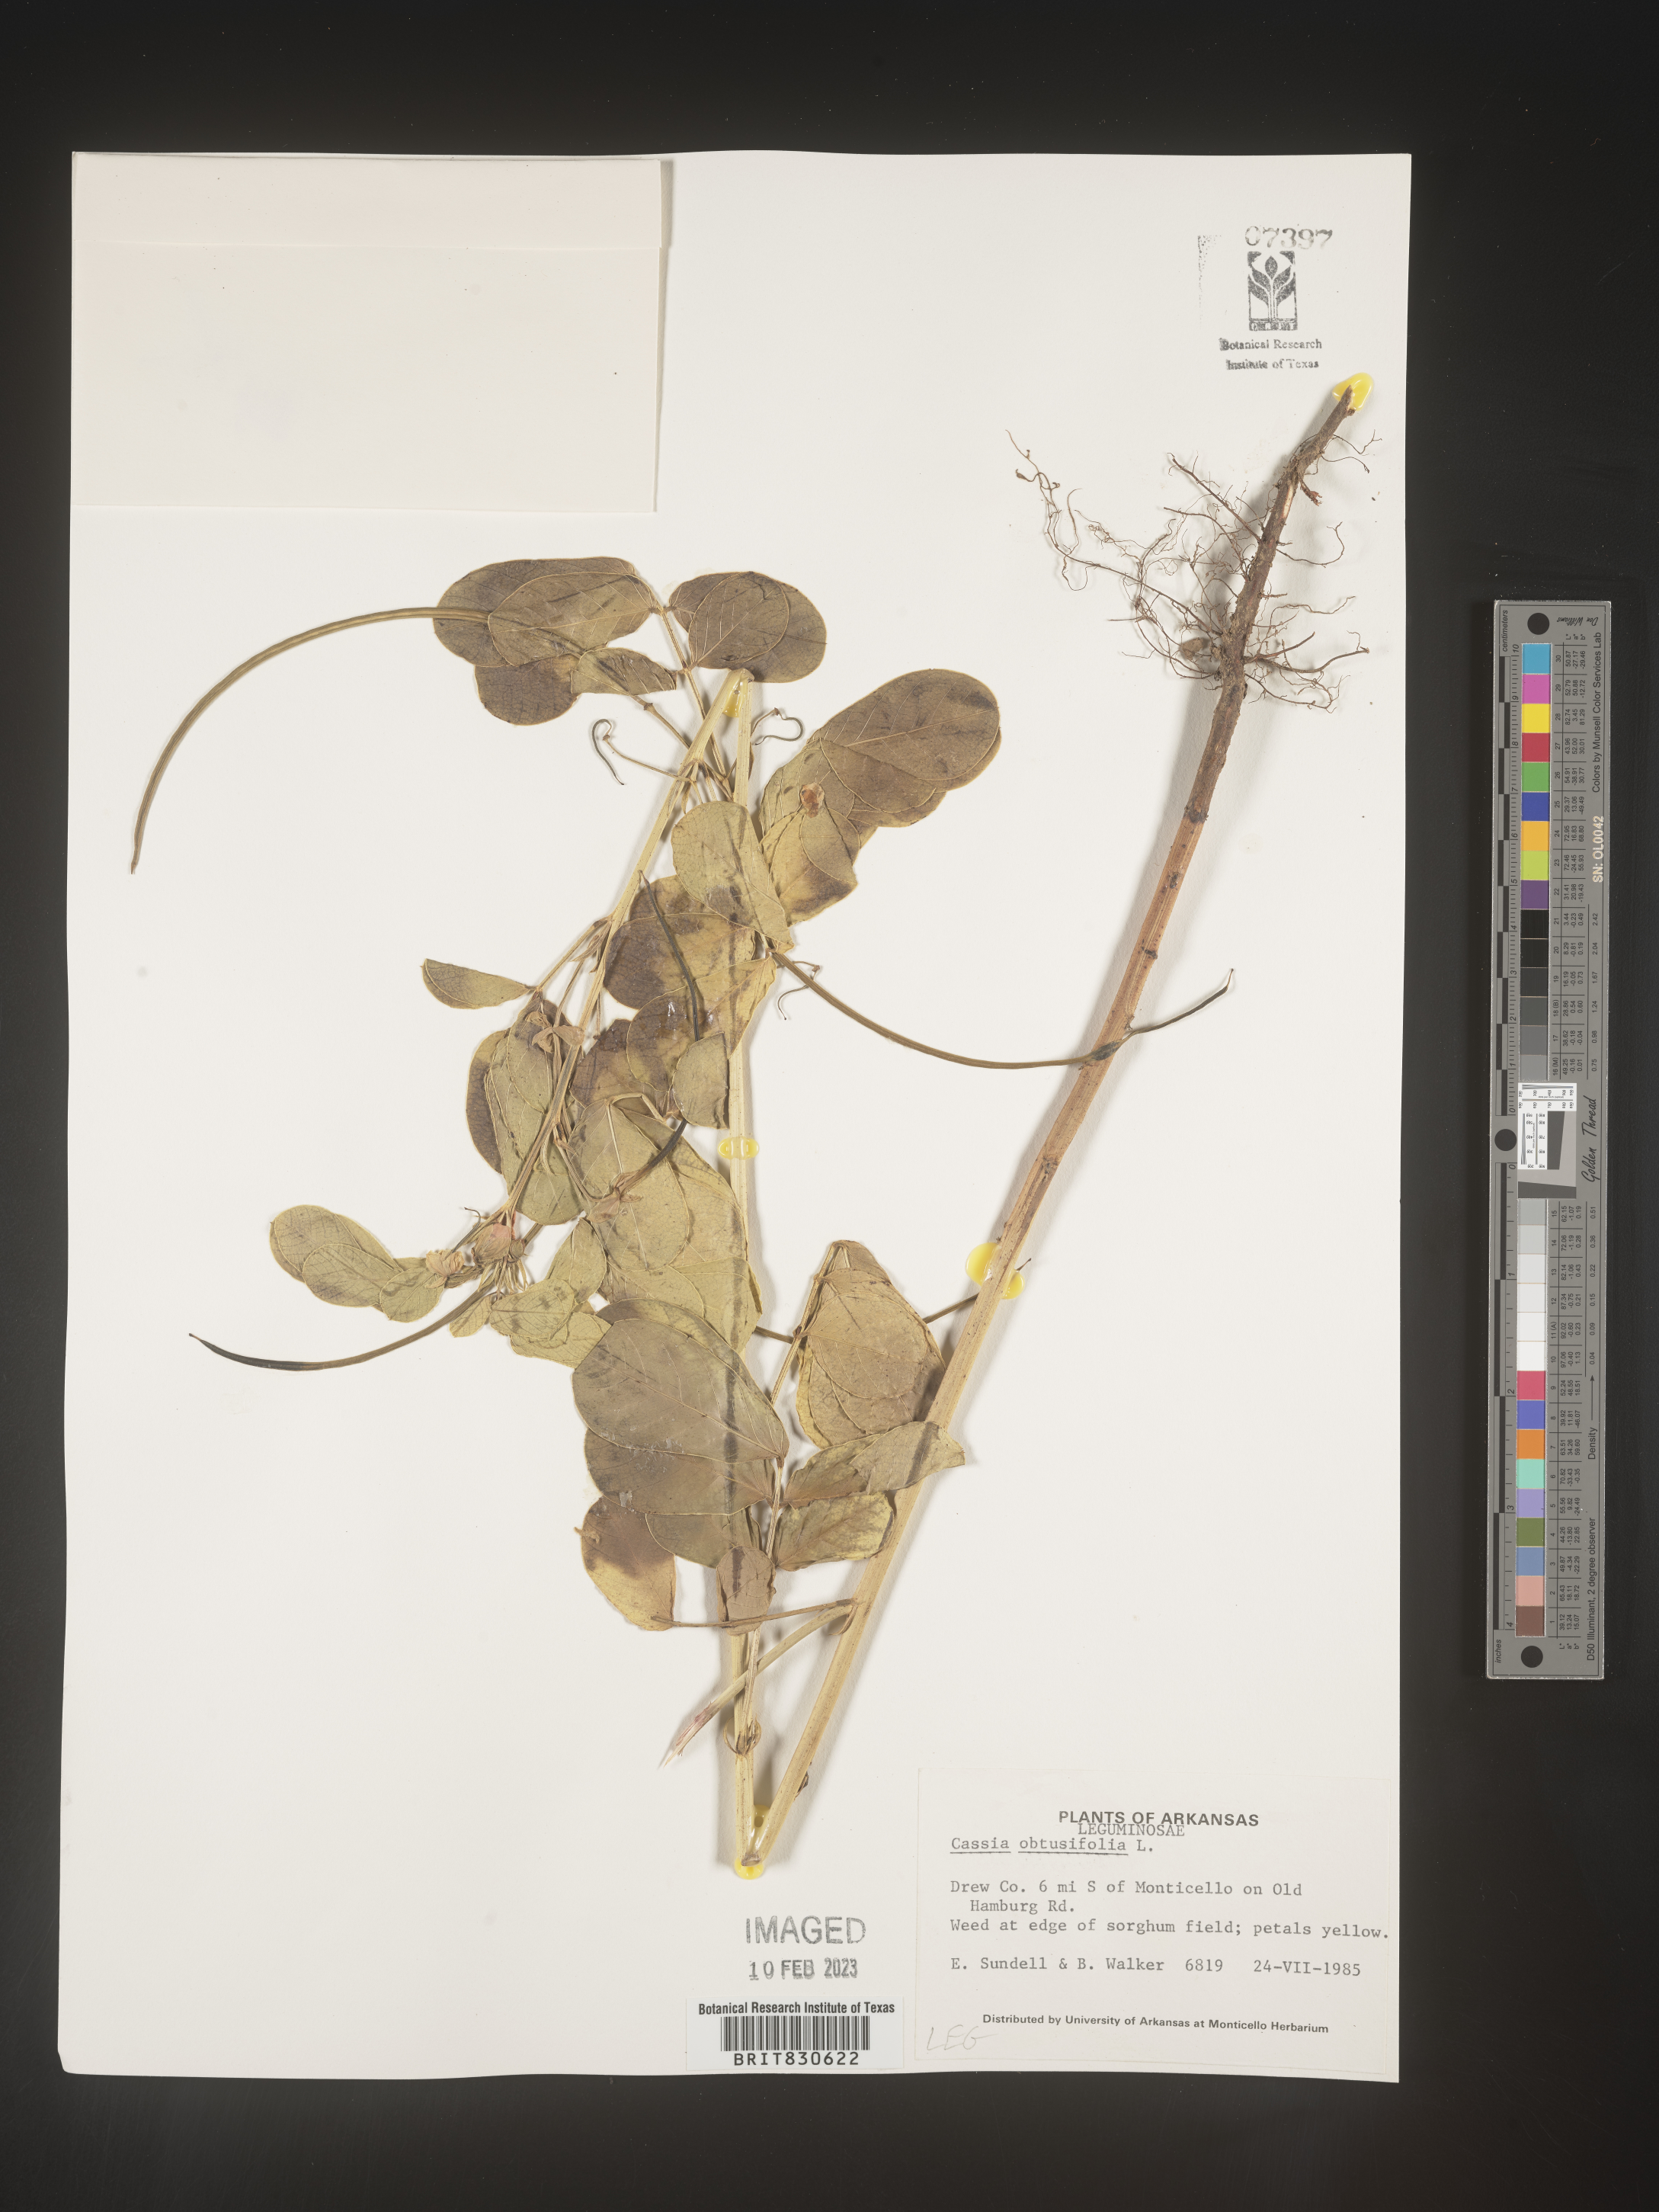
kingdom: Plantae
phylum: Tracheophyta
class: Magnoliopsida
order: Fabales
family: Fabaceae
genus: Senna
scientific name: Senna obtusifolia
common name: Java-bean
